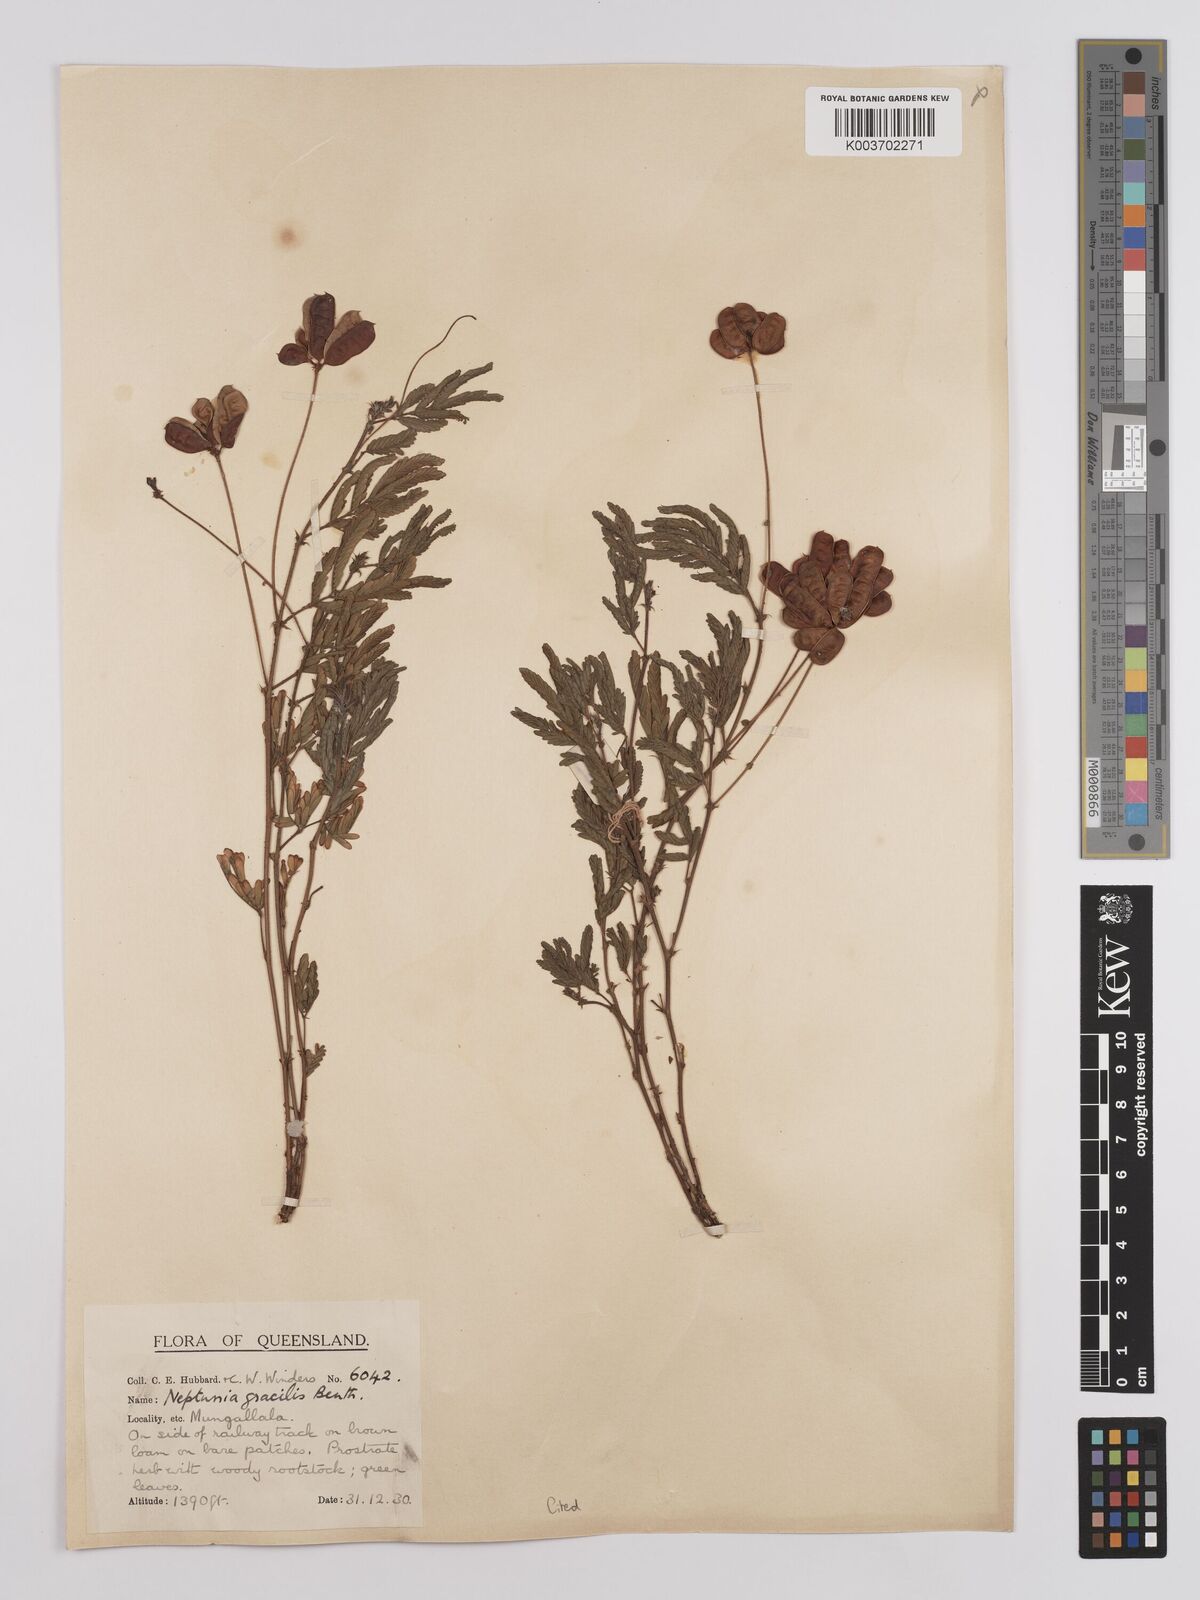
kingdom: Plantae
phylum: Tracheophyta
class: Magnoliopsida
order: Fabales
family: Fabaceae
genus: Neptunia
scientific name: Neptunia gracilis
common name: Sensitive-plant
